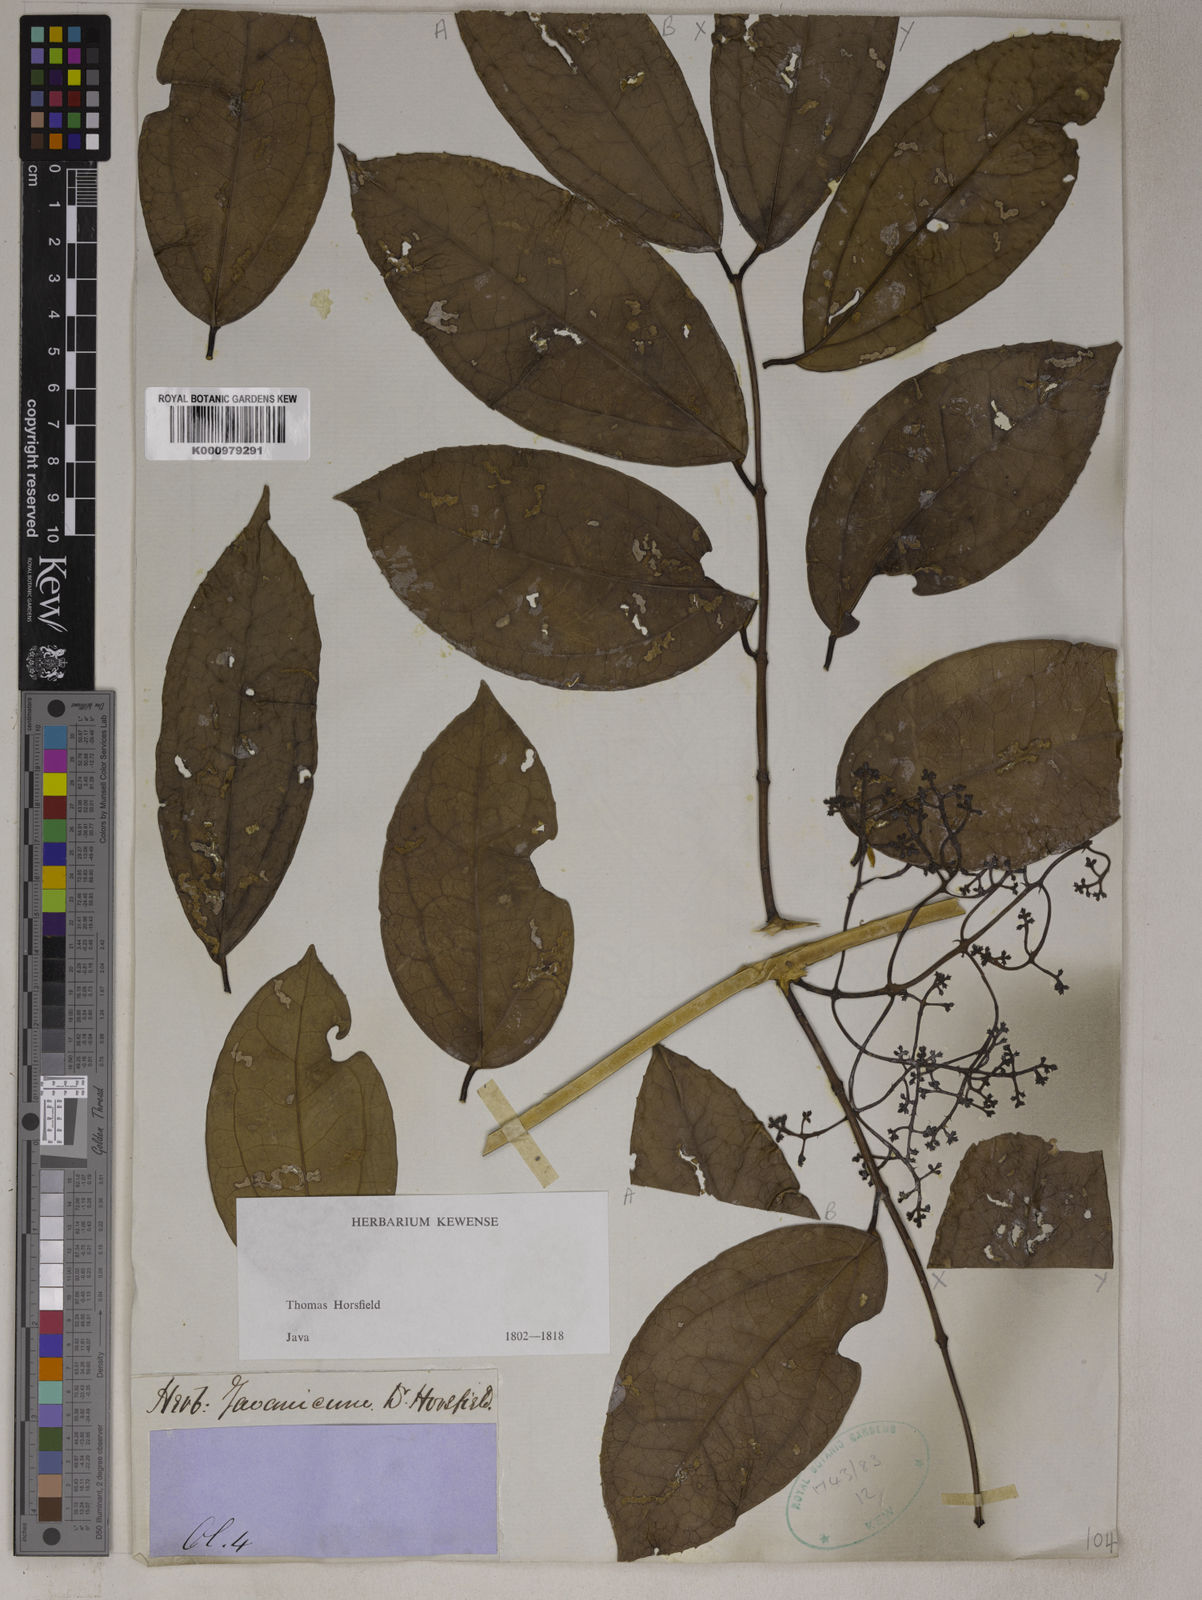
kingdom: Plantae
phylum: Tracheophyta
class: Magnoliopsida
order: Lamiales
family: Oleaceae
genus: Myxopyrum
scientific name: Myxopyrum nervosum
